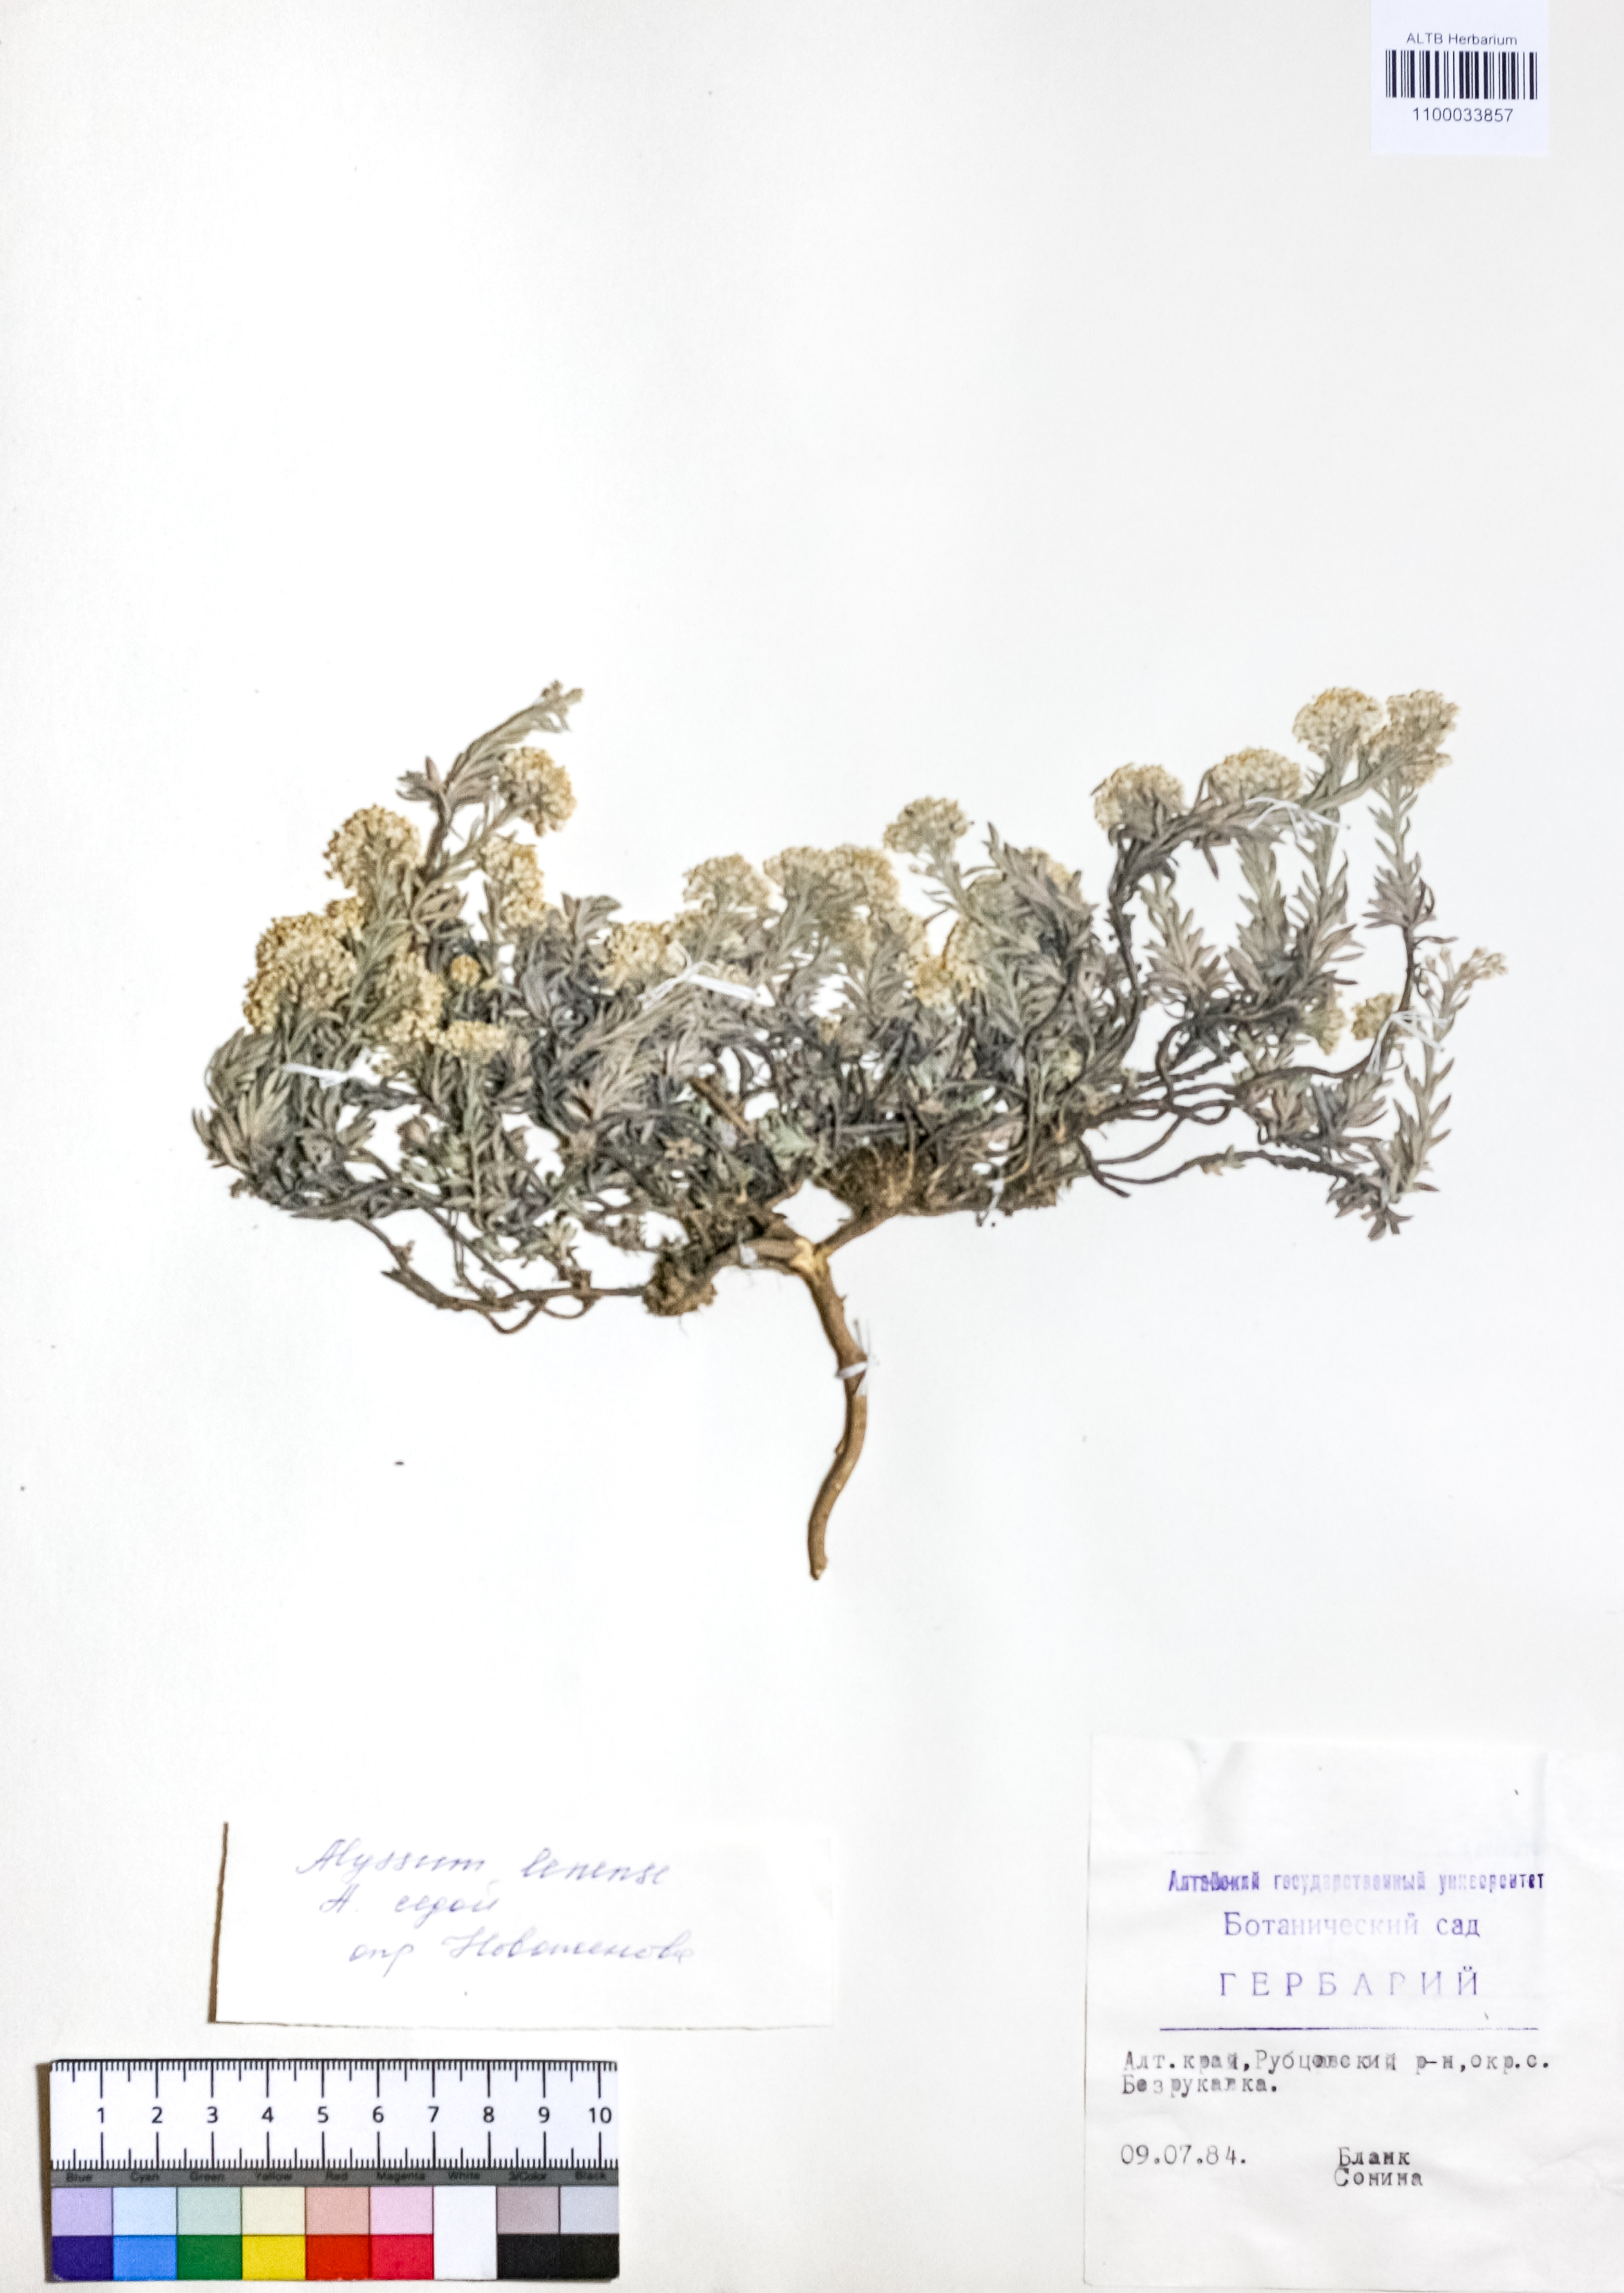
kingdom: Plantae
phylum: Tracheophyta
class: Magnoliopsida
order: Brassicales
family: Brassicaceae
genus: Alyssum
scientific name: Alyssum lenense
